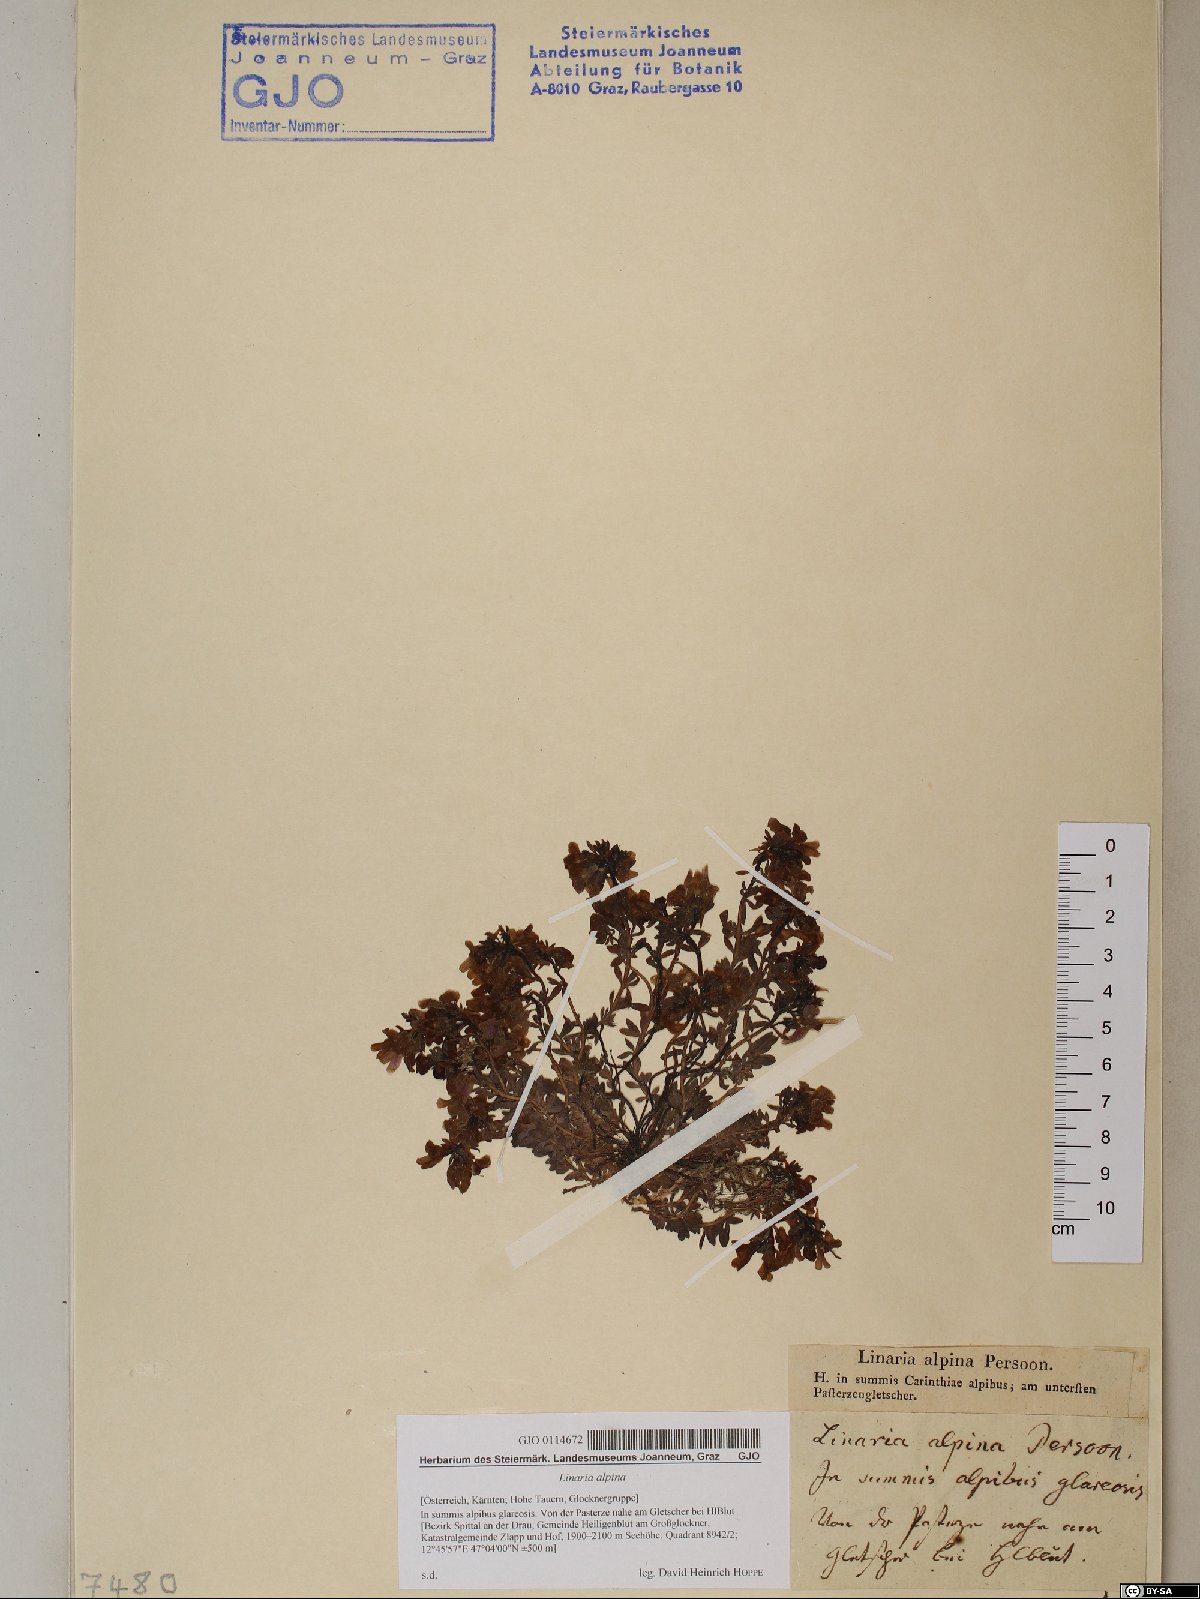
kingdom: Plantae
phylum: Tracheophyta
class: Magnoliopsida
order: Lamiales
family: Plantaginaceae
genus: Linaria
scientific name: Linaria alpina
